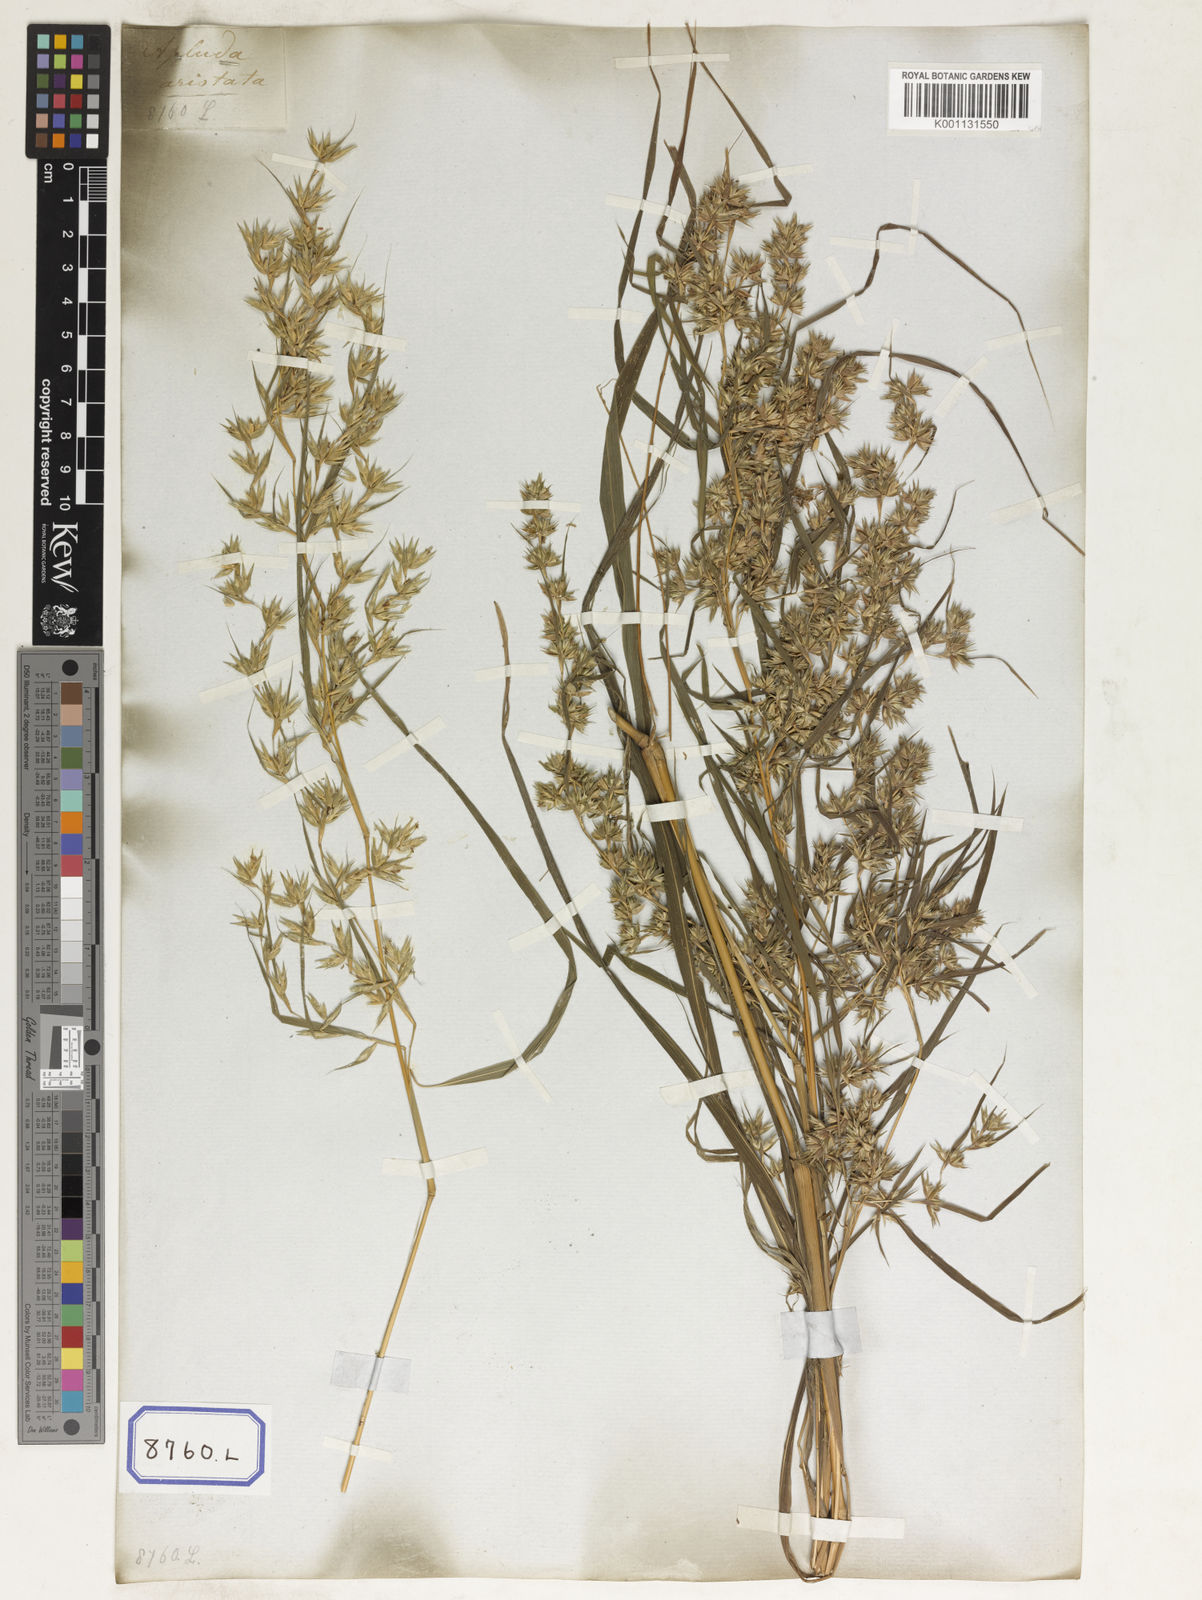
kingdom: Plantae
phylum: Tracheophyta
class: Liliopsida
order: Poales
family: Poaceae
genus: Apluda
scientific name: Apluda
